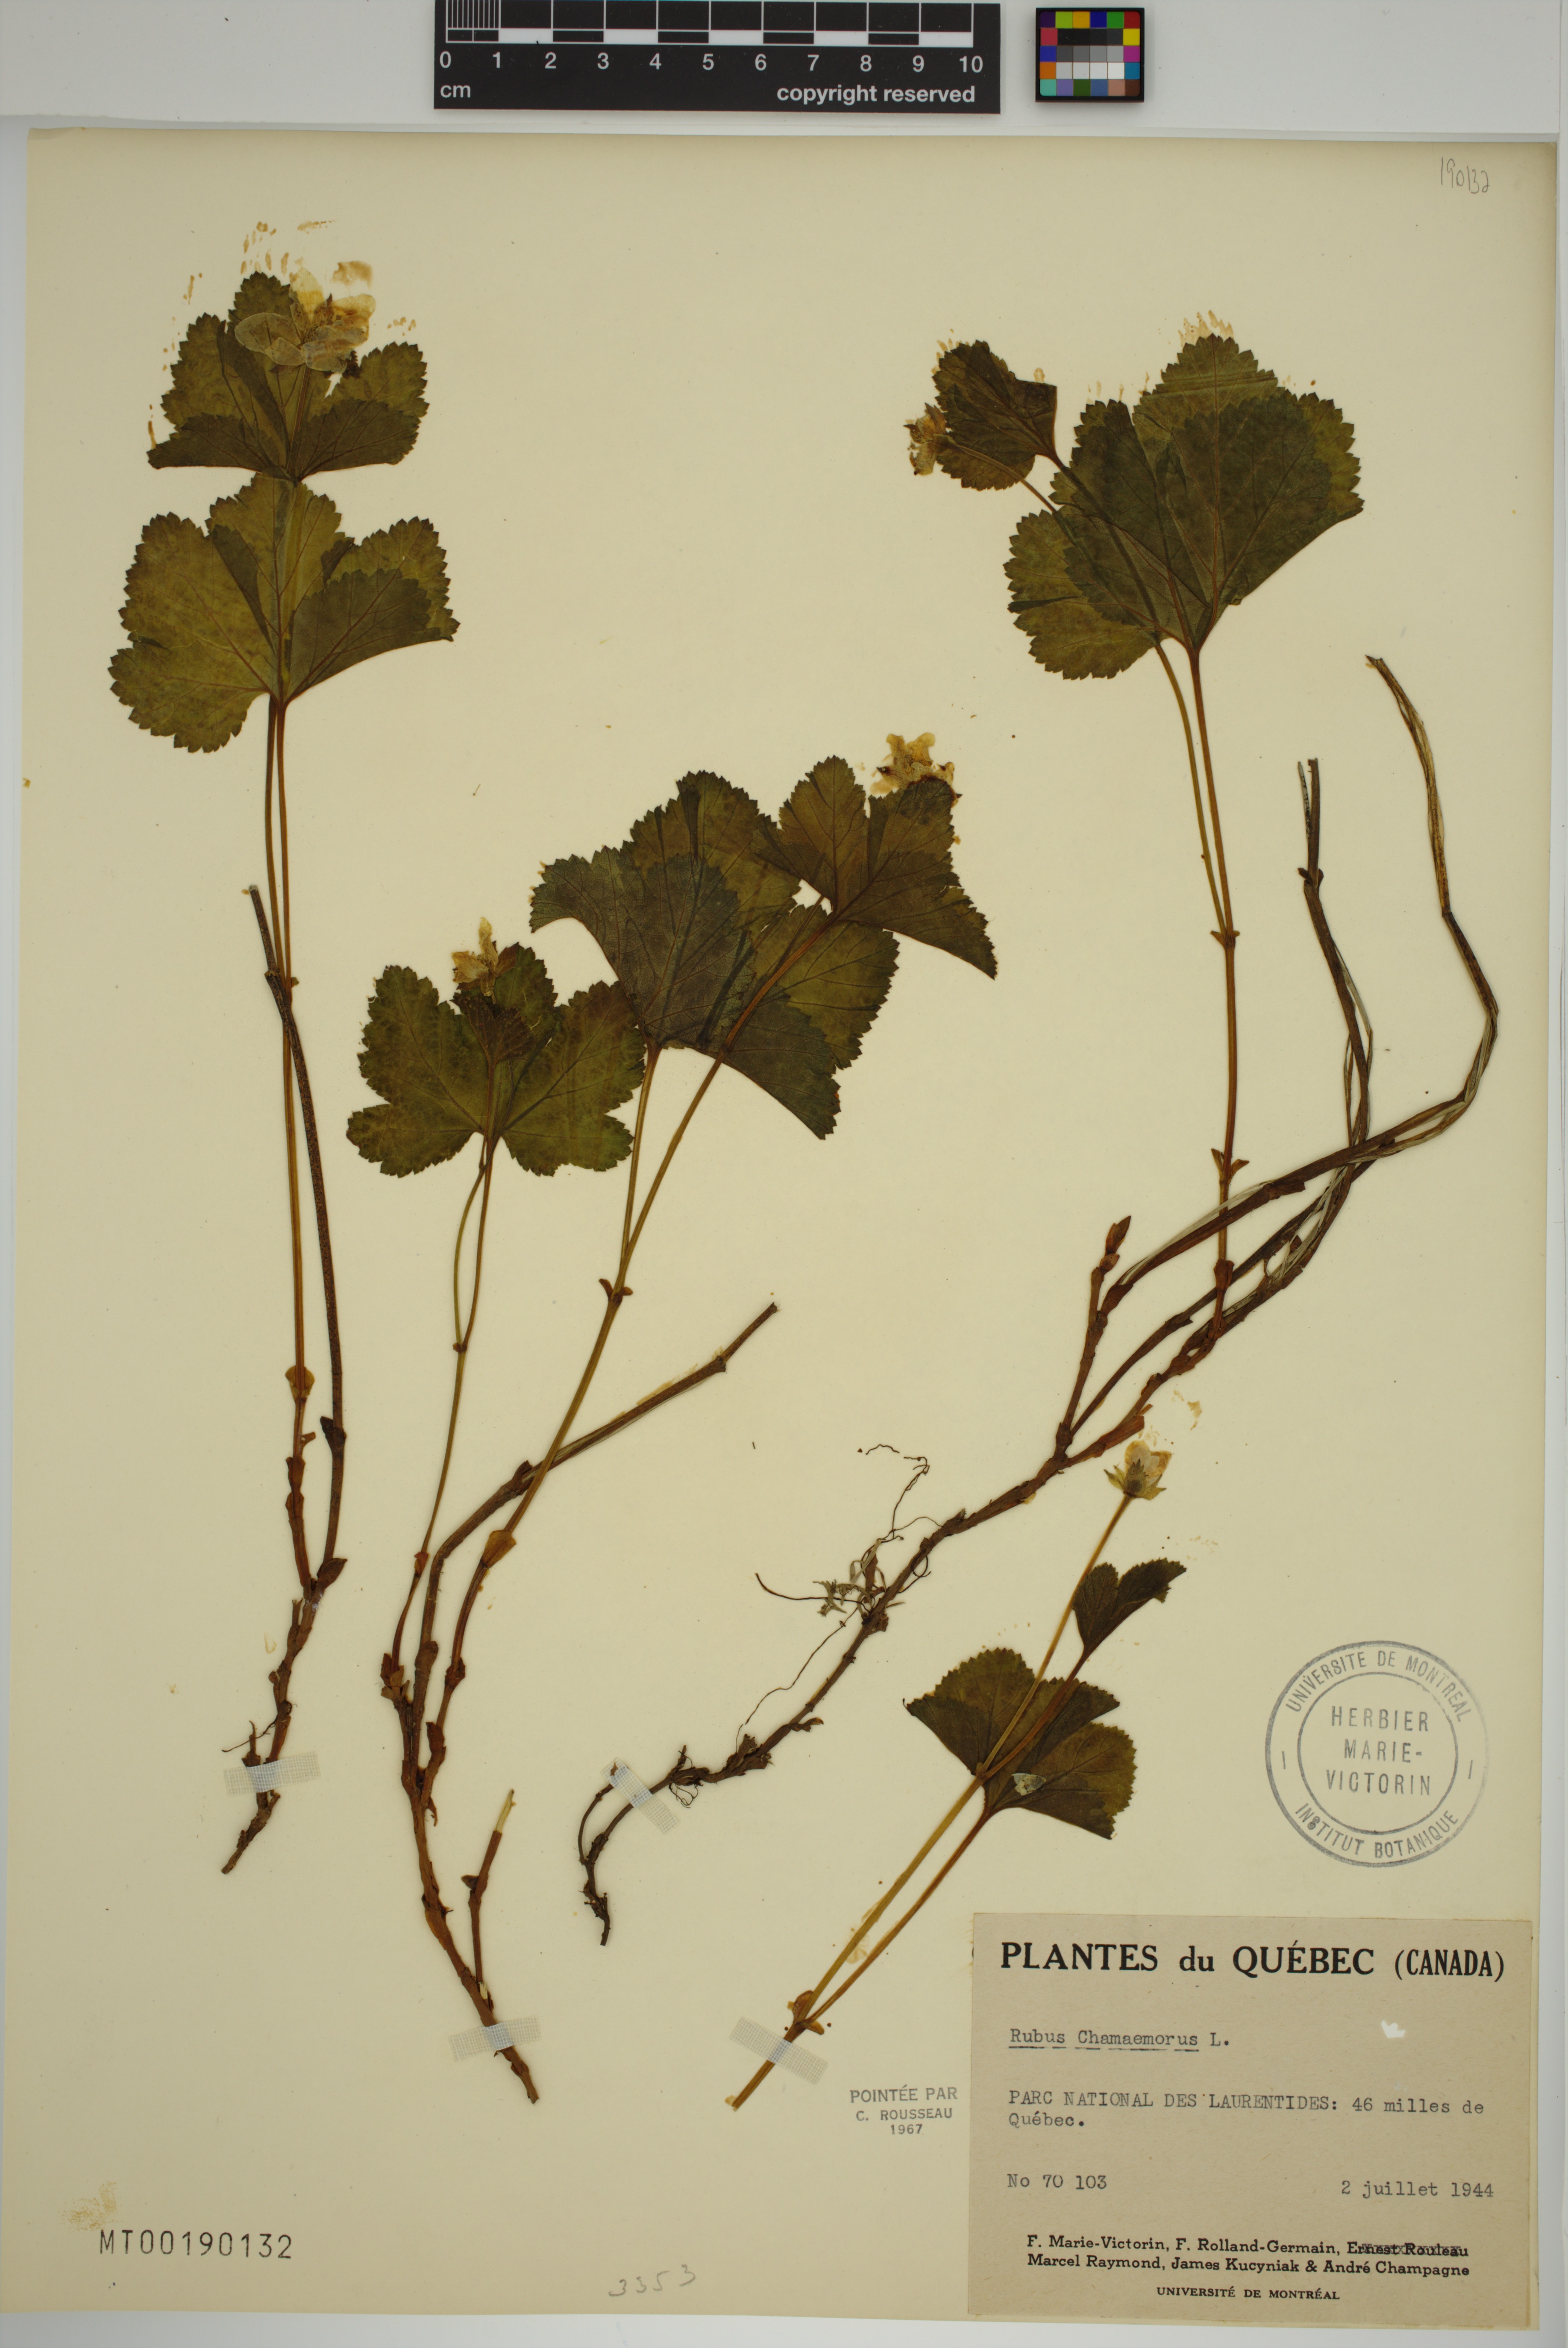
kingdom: Plantae
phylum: Tracheophyta
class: Magnoliopsida
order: Rosales
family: Rosaceae
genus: Rubus
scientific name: Rubus chamaemorus
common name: Cloudberry
